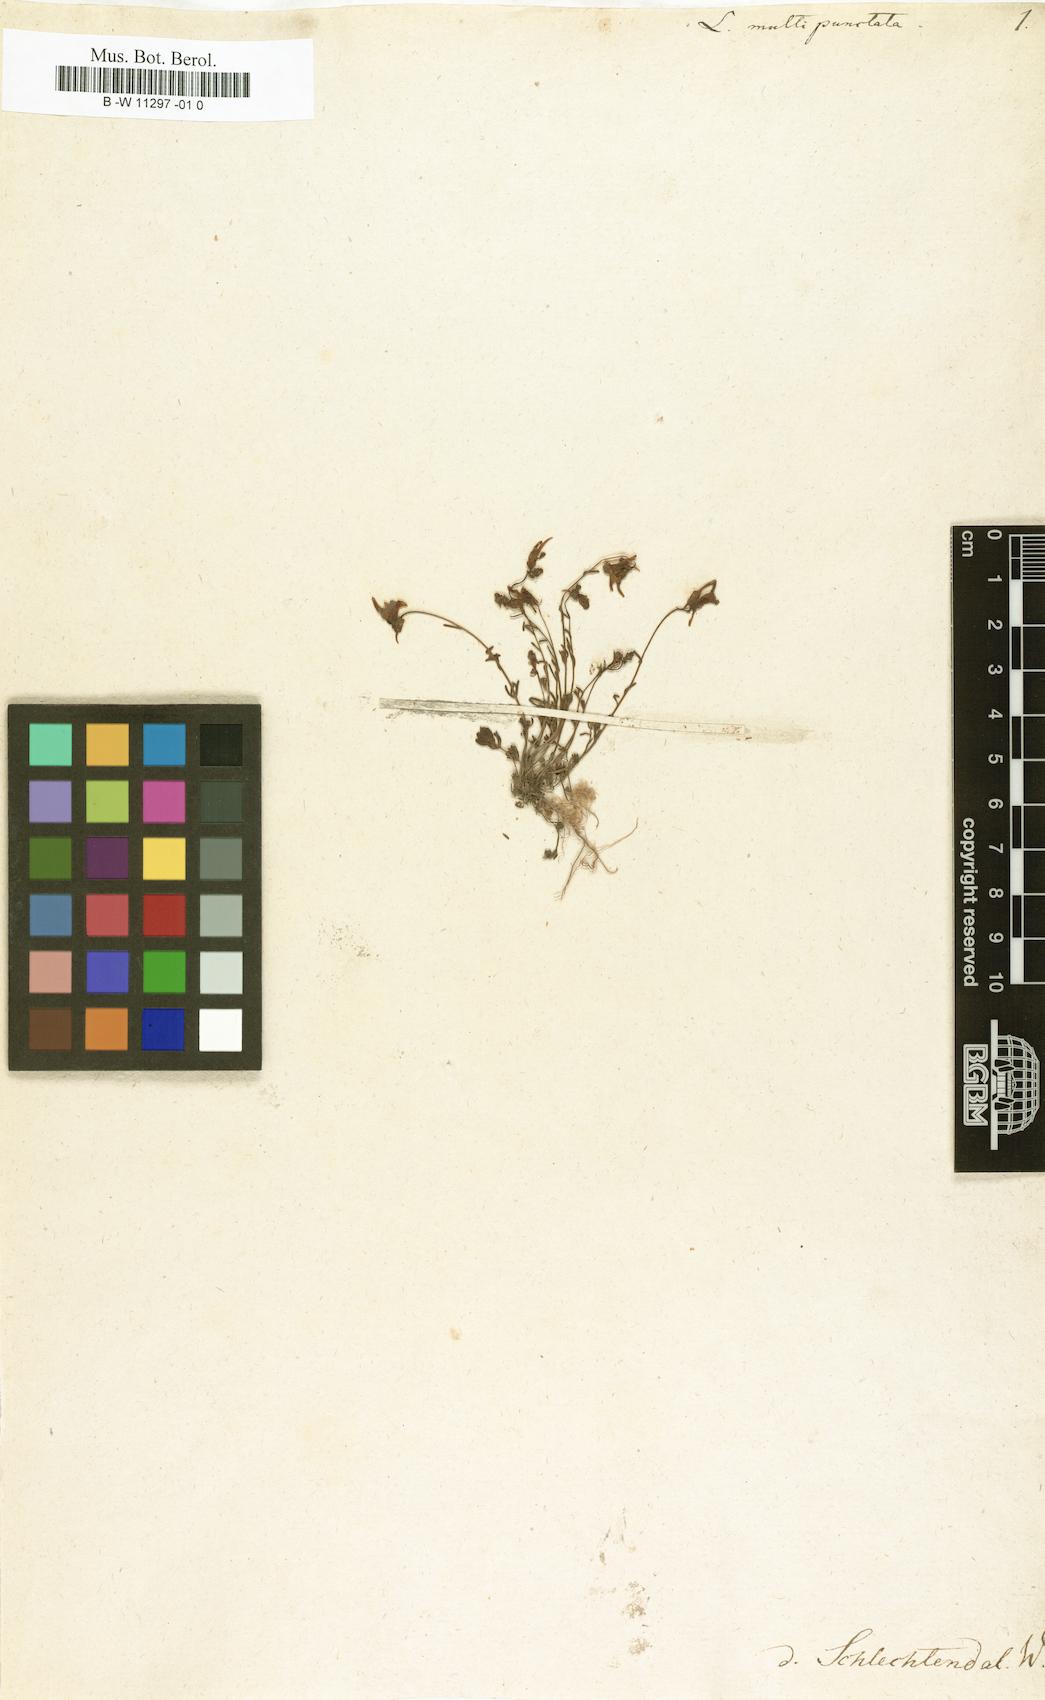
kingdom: Plantae
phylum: Tracheophyta
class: Magnoliopsida
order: Lamiales
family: Plantaginaceae
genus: Linaria
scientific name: Linaria amethystea
